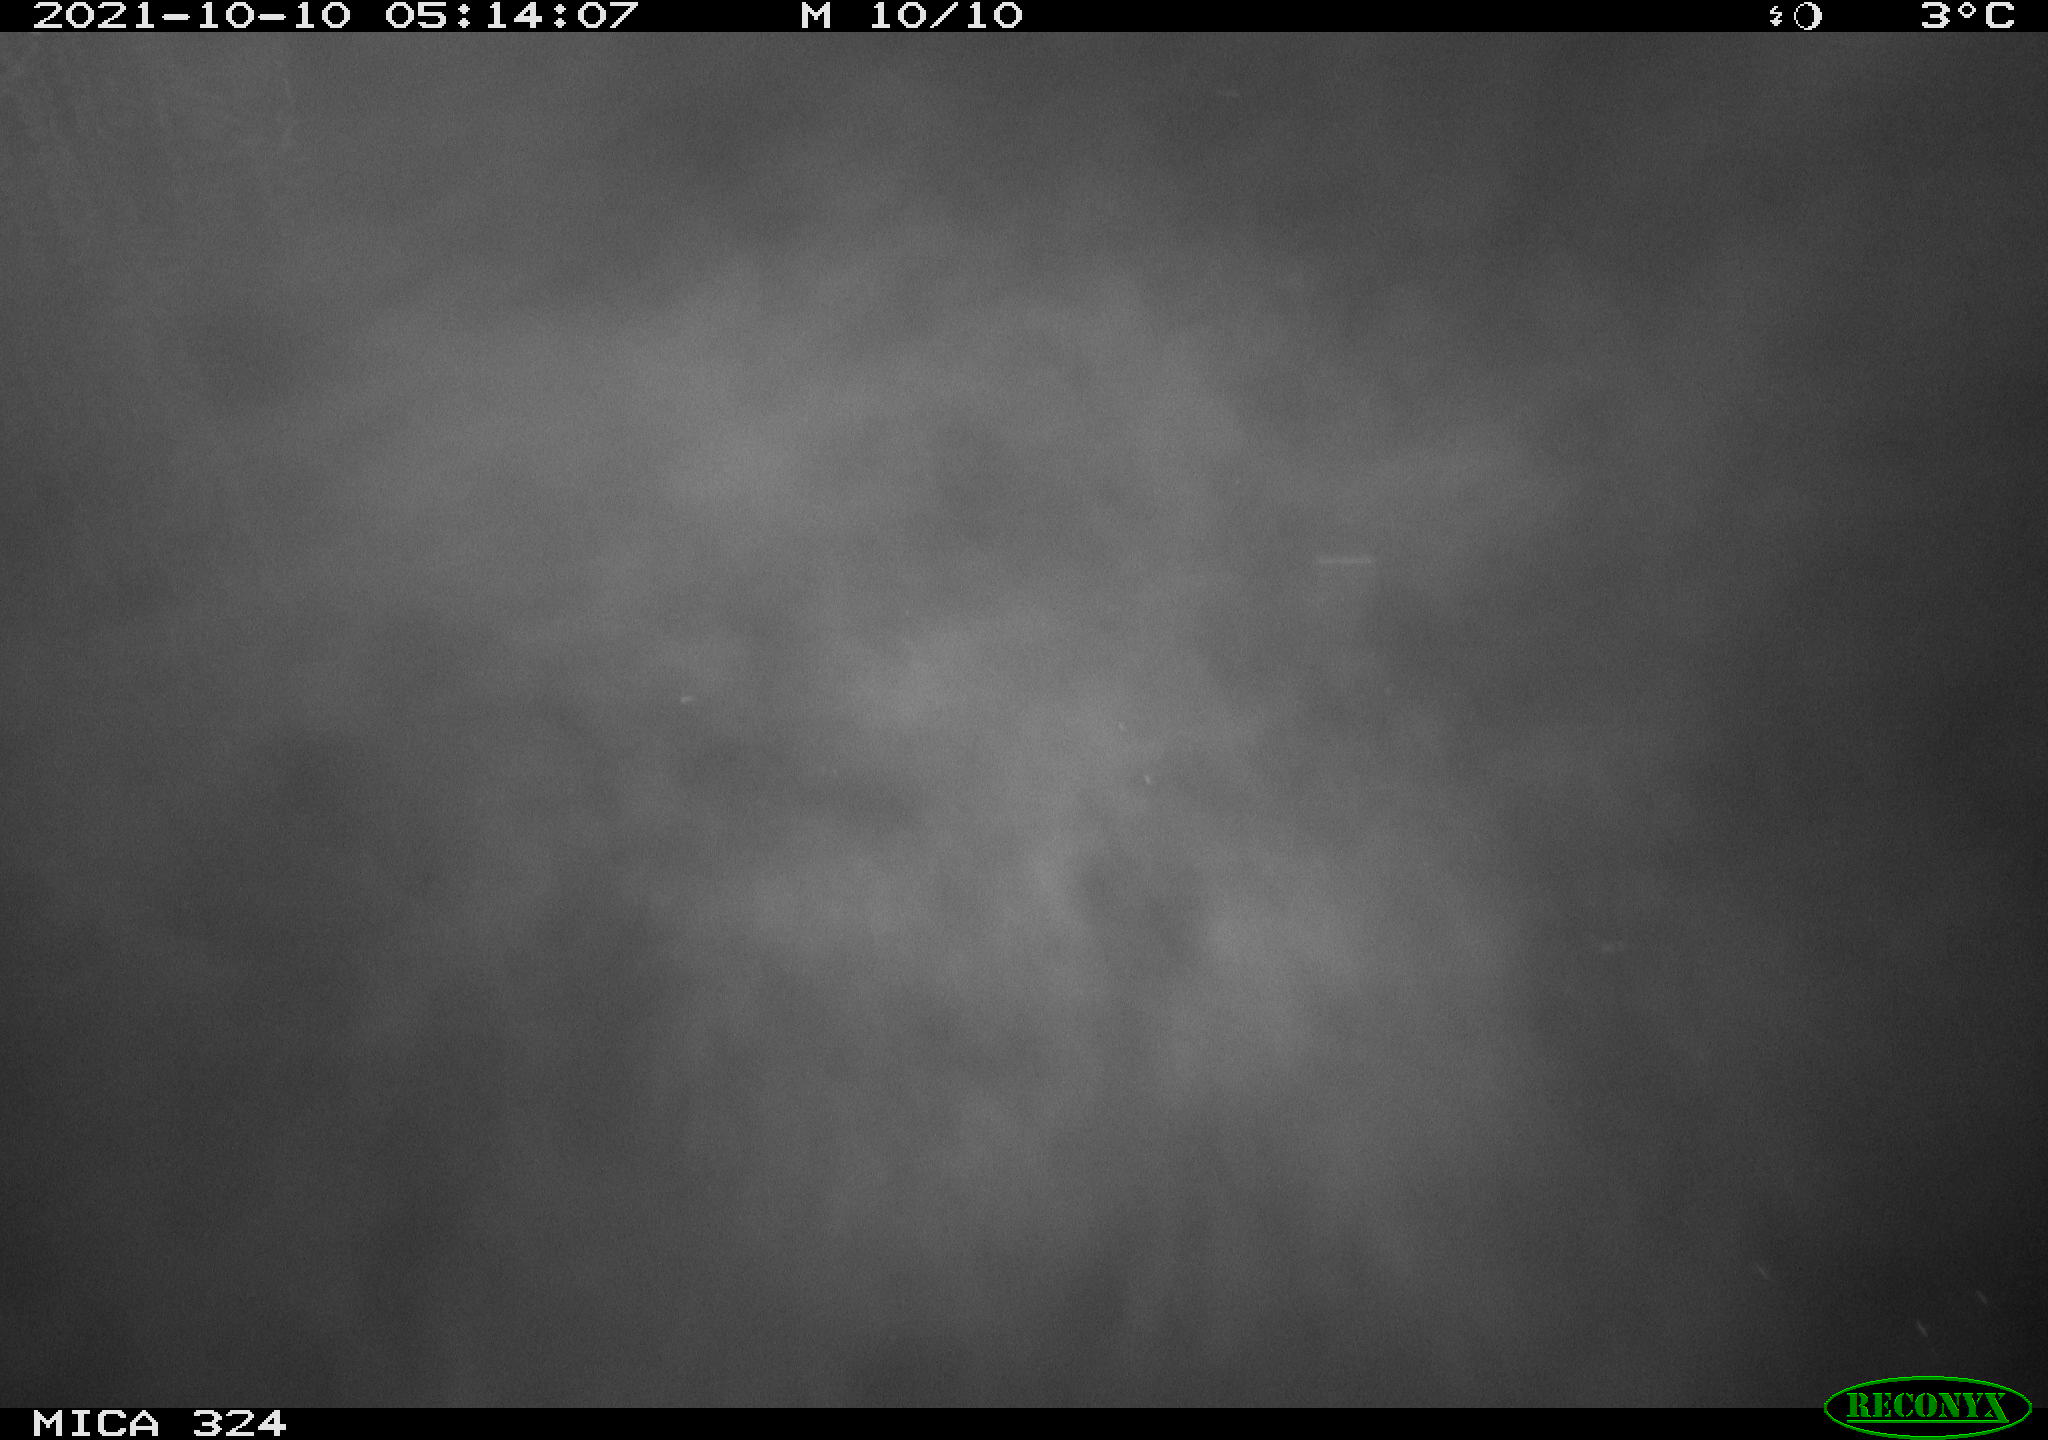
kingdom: Animalia
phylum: Chordata
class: Mammalia
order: Rodentia
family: Cricetidae
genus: Ondatra
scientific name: Ondatra zibethicus
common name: Muskrat
